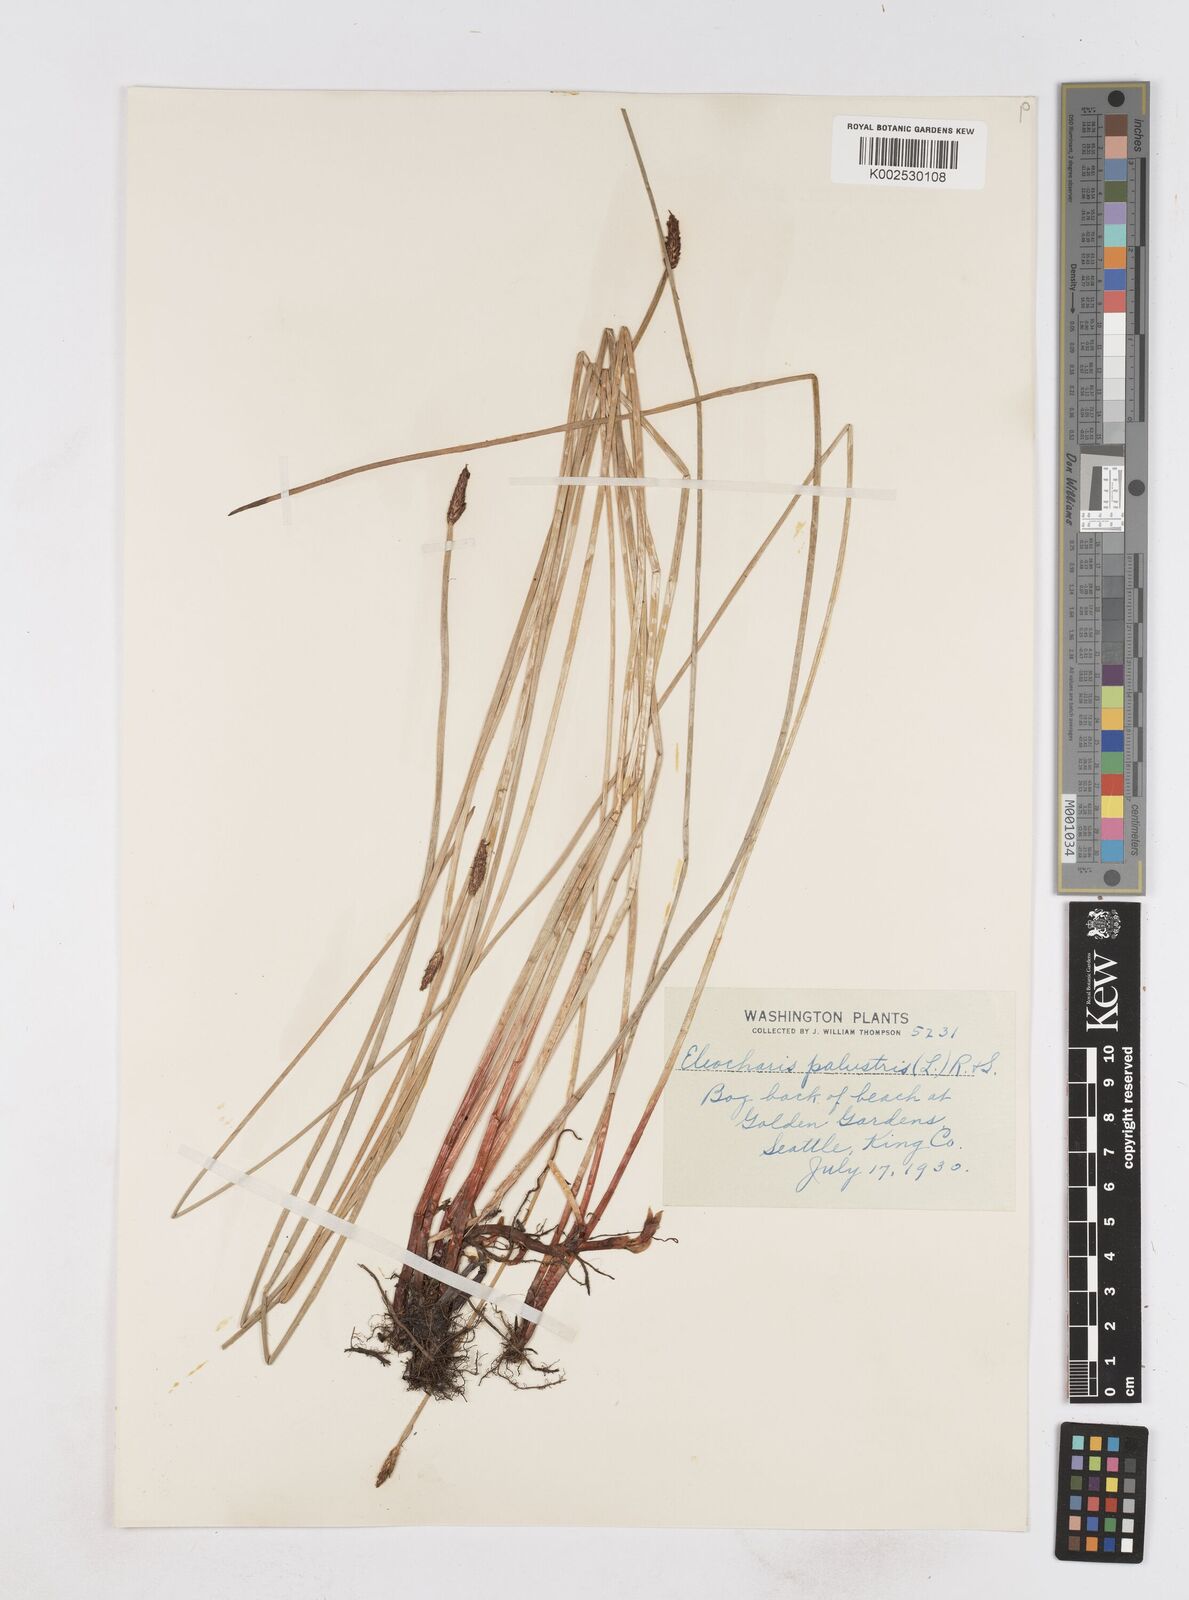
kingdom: Plantae
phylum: Tracheophyta
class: Liliopsida
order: Poales
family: Cyperaceae
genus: Eleocharis
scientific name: Eleocharis palustris
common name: Common spike-rush
